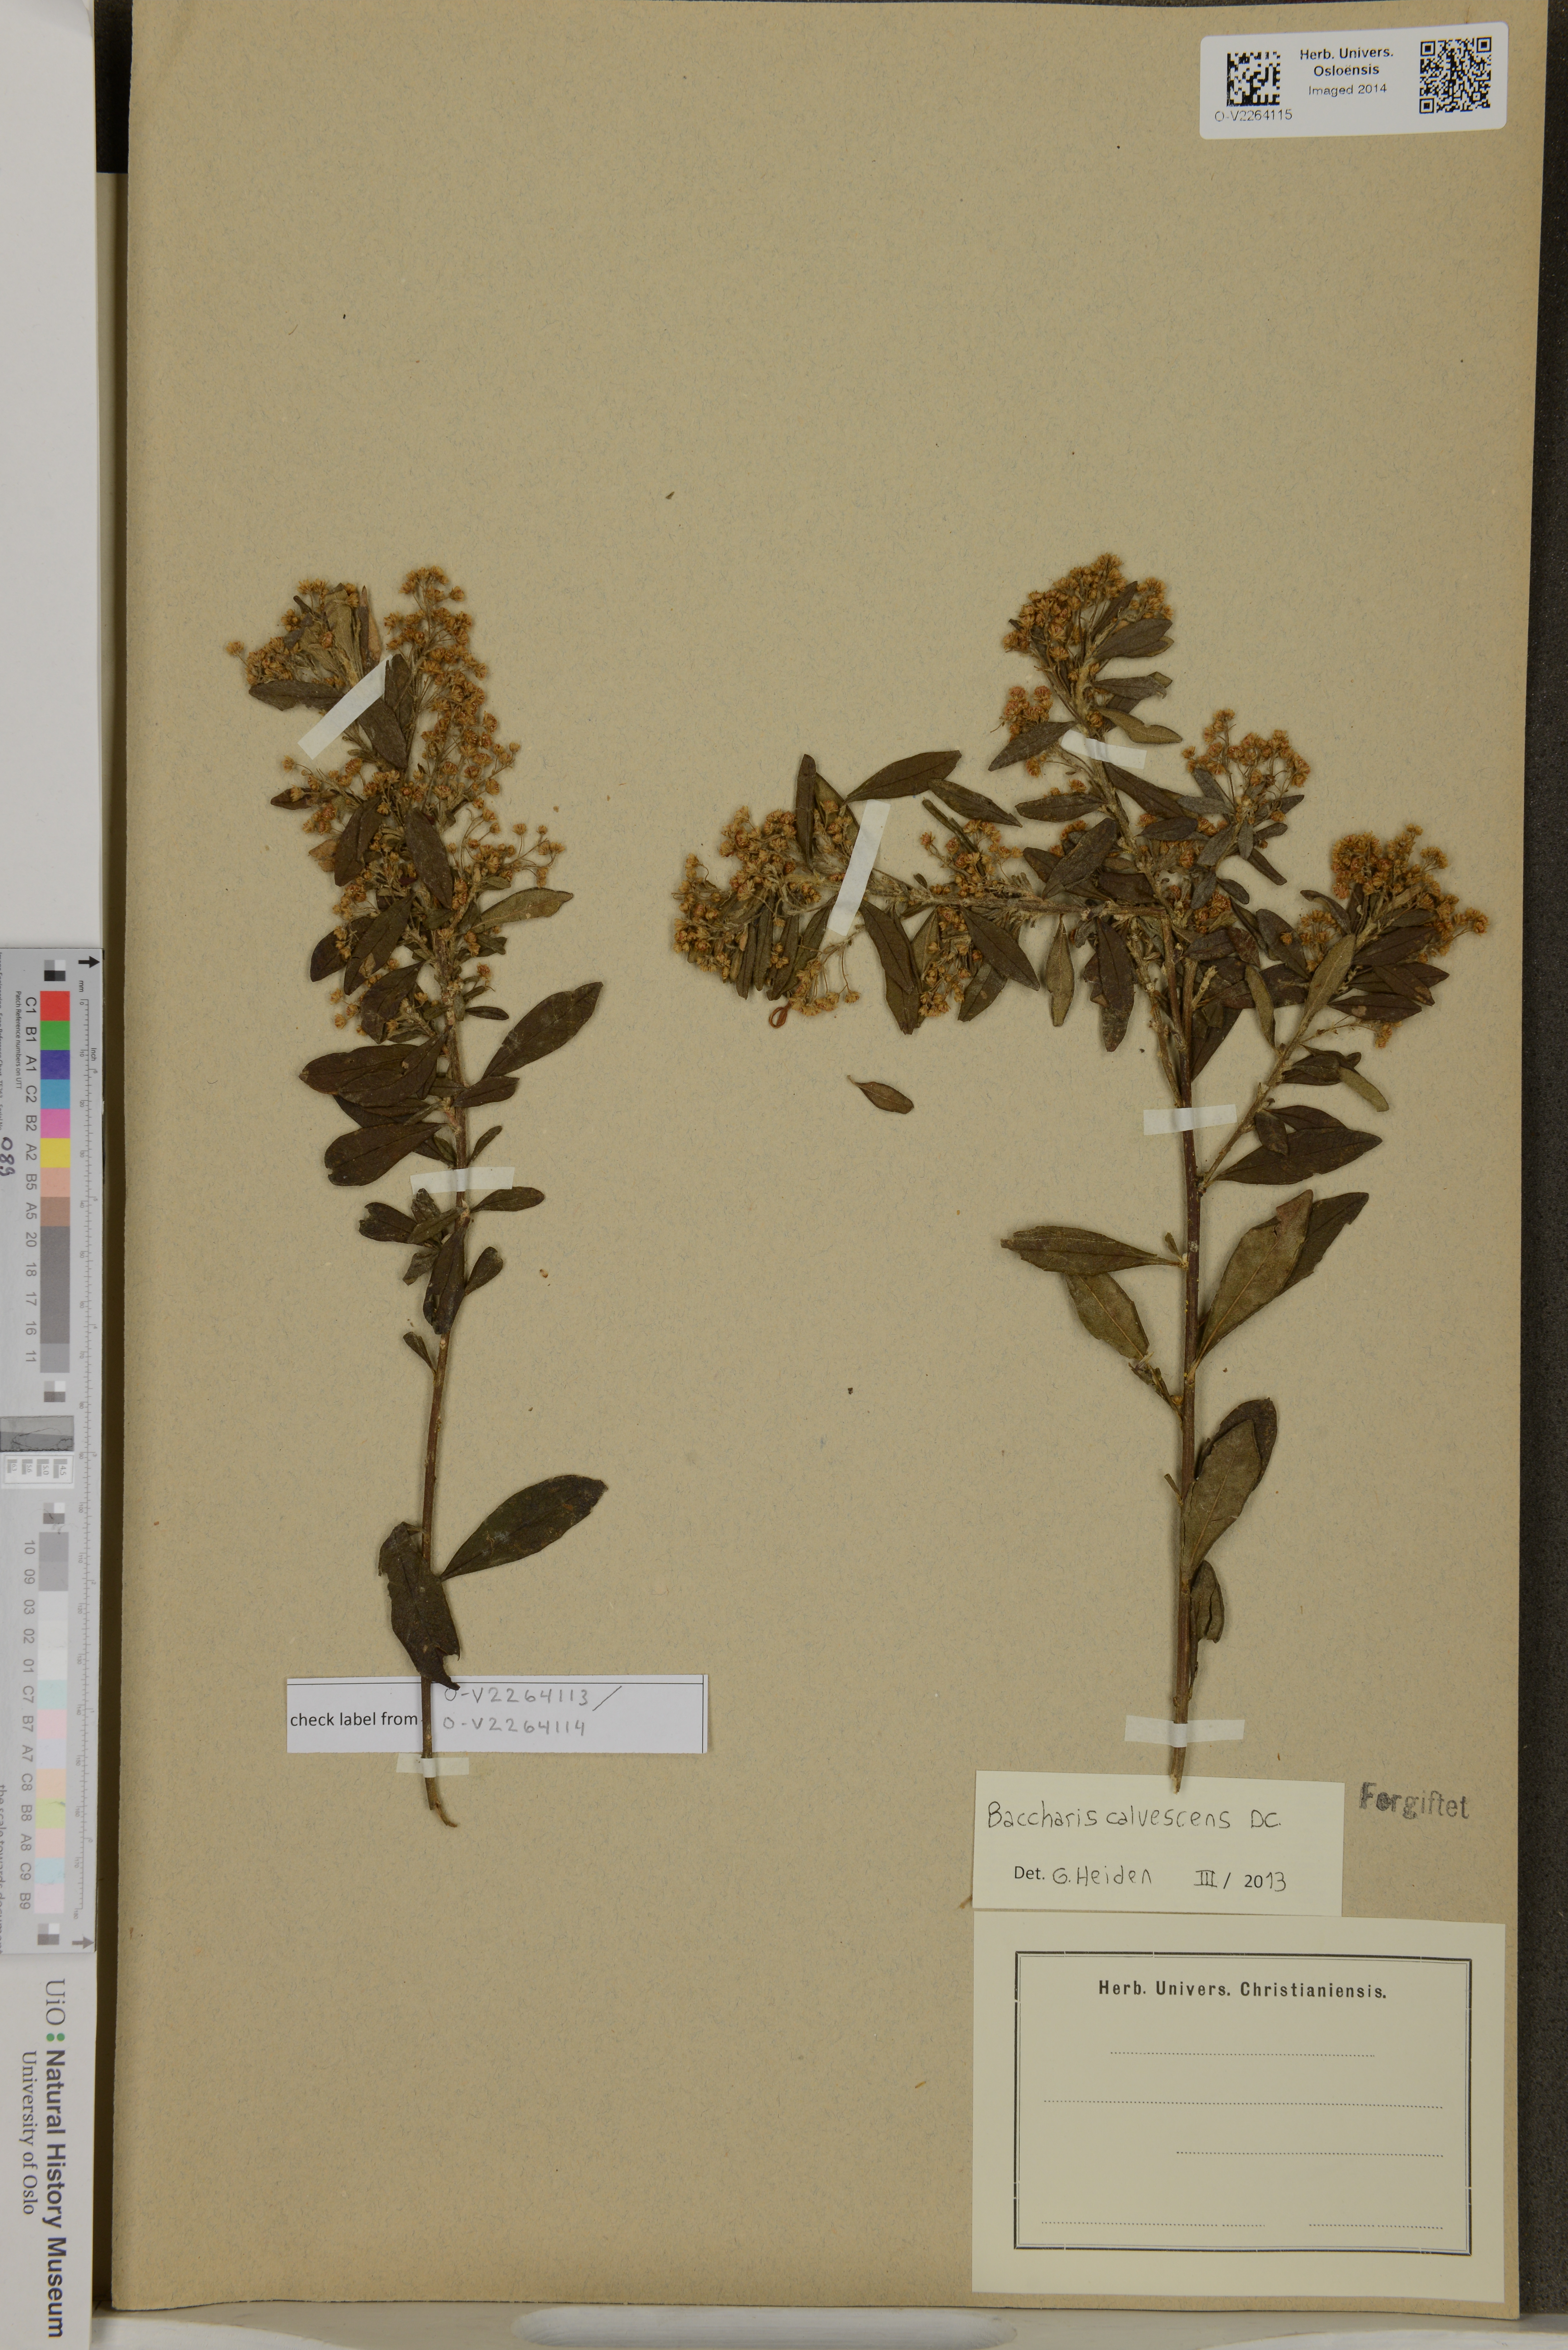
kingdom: Plantae
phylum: Tracheophyta
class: Magnoliopsida
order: Asterales
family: Asteraceae
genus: Baccharis
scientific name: Baccharis calvescens
